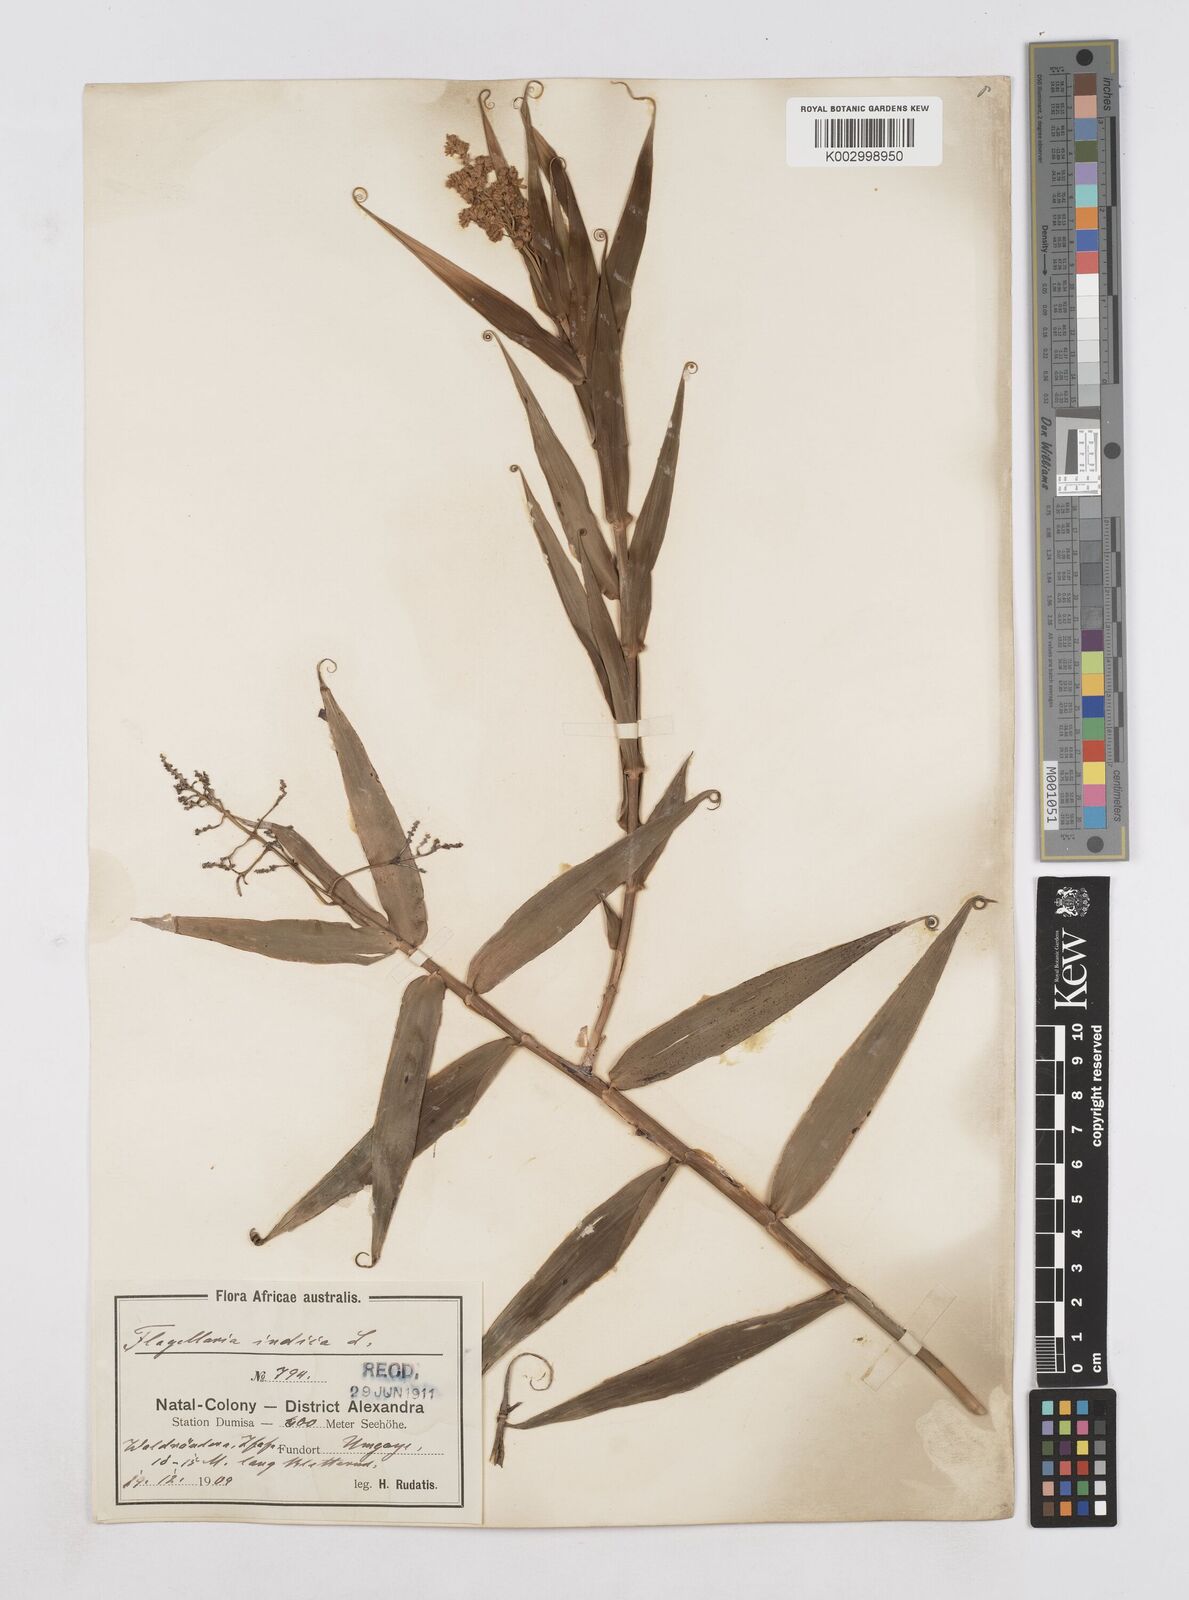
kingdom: Plantae
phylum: Tracheophyta
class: Liliopsida
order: Poales
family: Flagellariaceae
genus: Flagellaria
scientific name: Flagellaria guineensis
